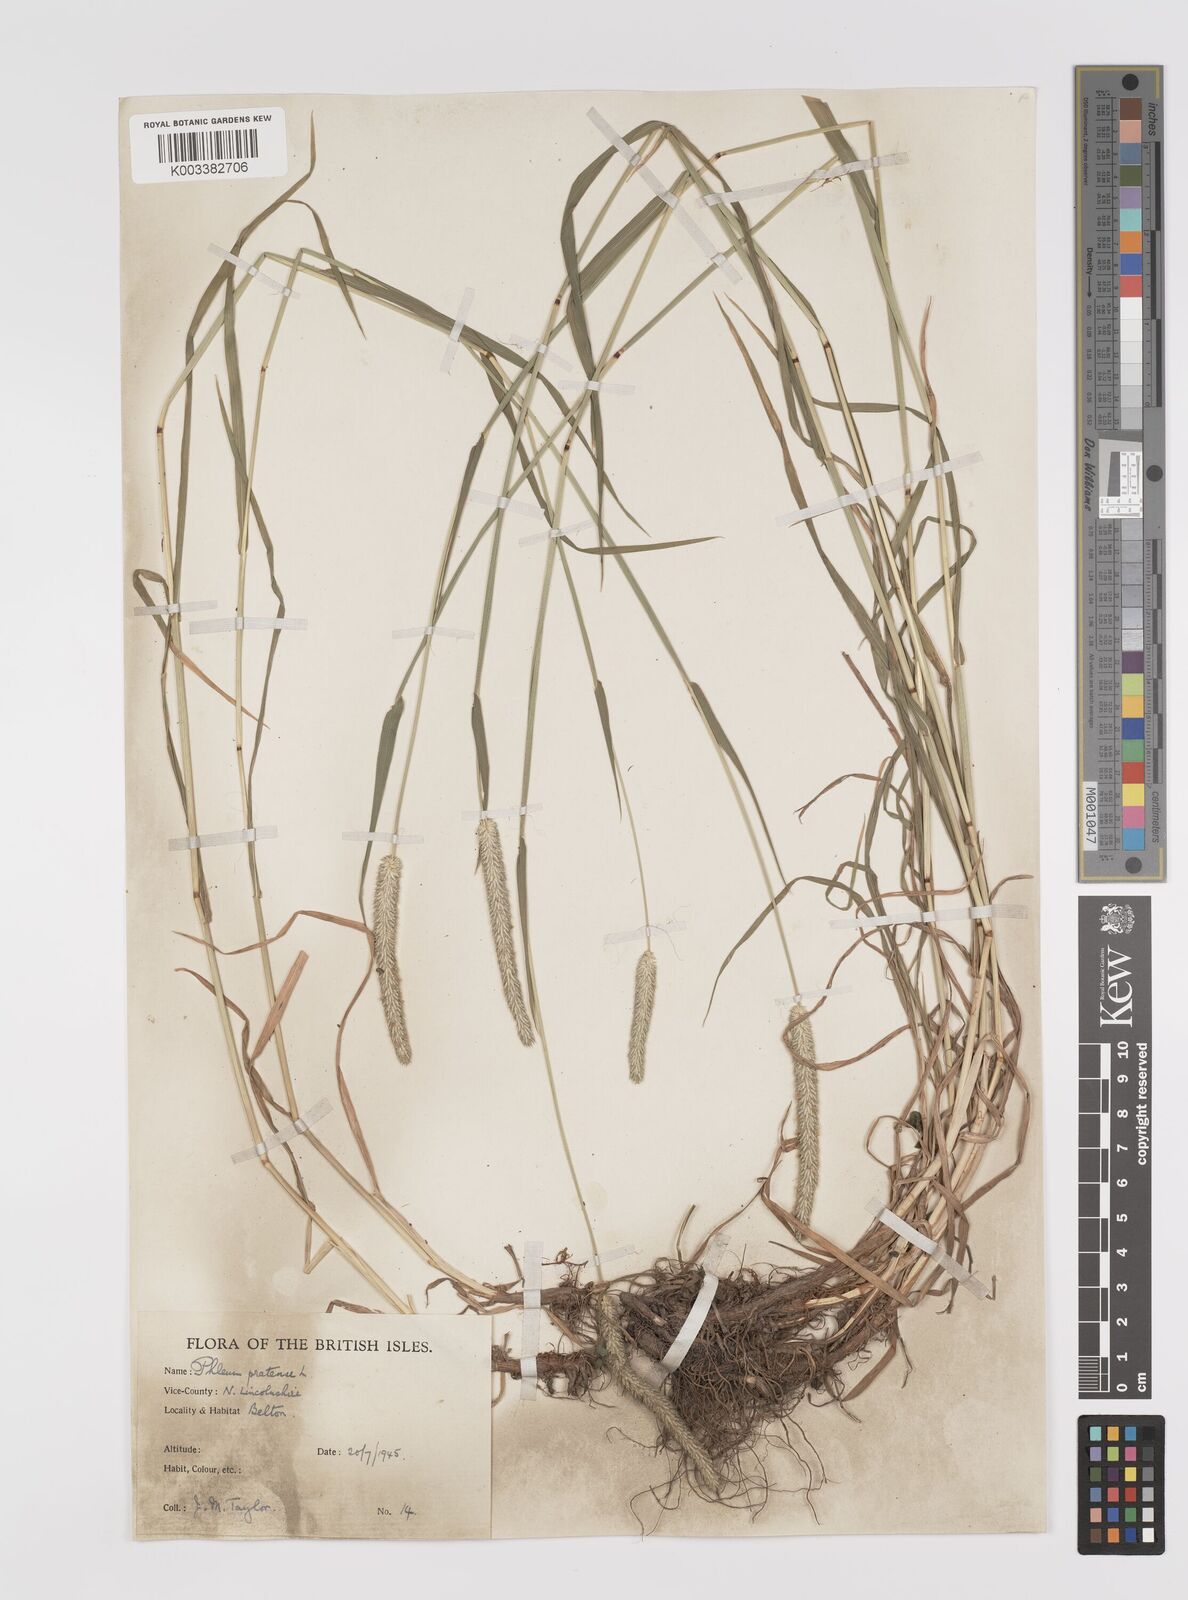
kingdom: Plantae
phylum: Tracheophyta
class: Liliopsida
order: Poales
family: Poaceae
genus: Phleum
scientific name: Phleum pratense
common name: Timothy grass
